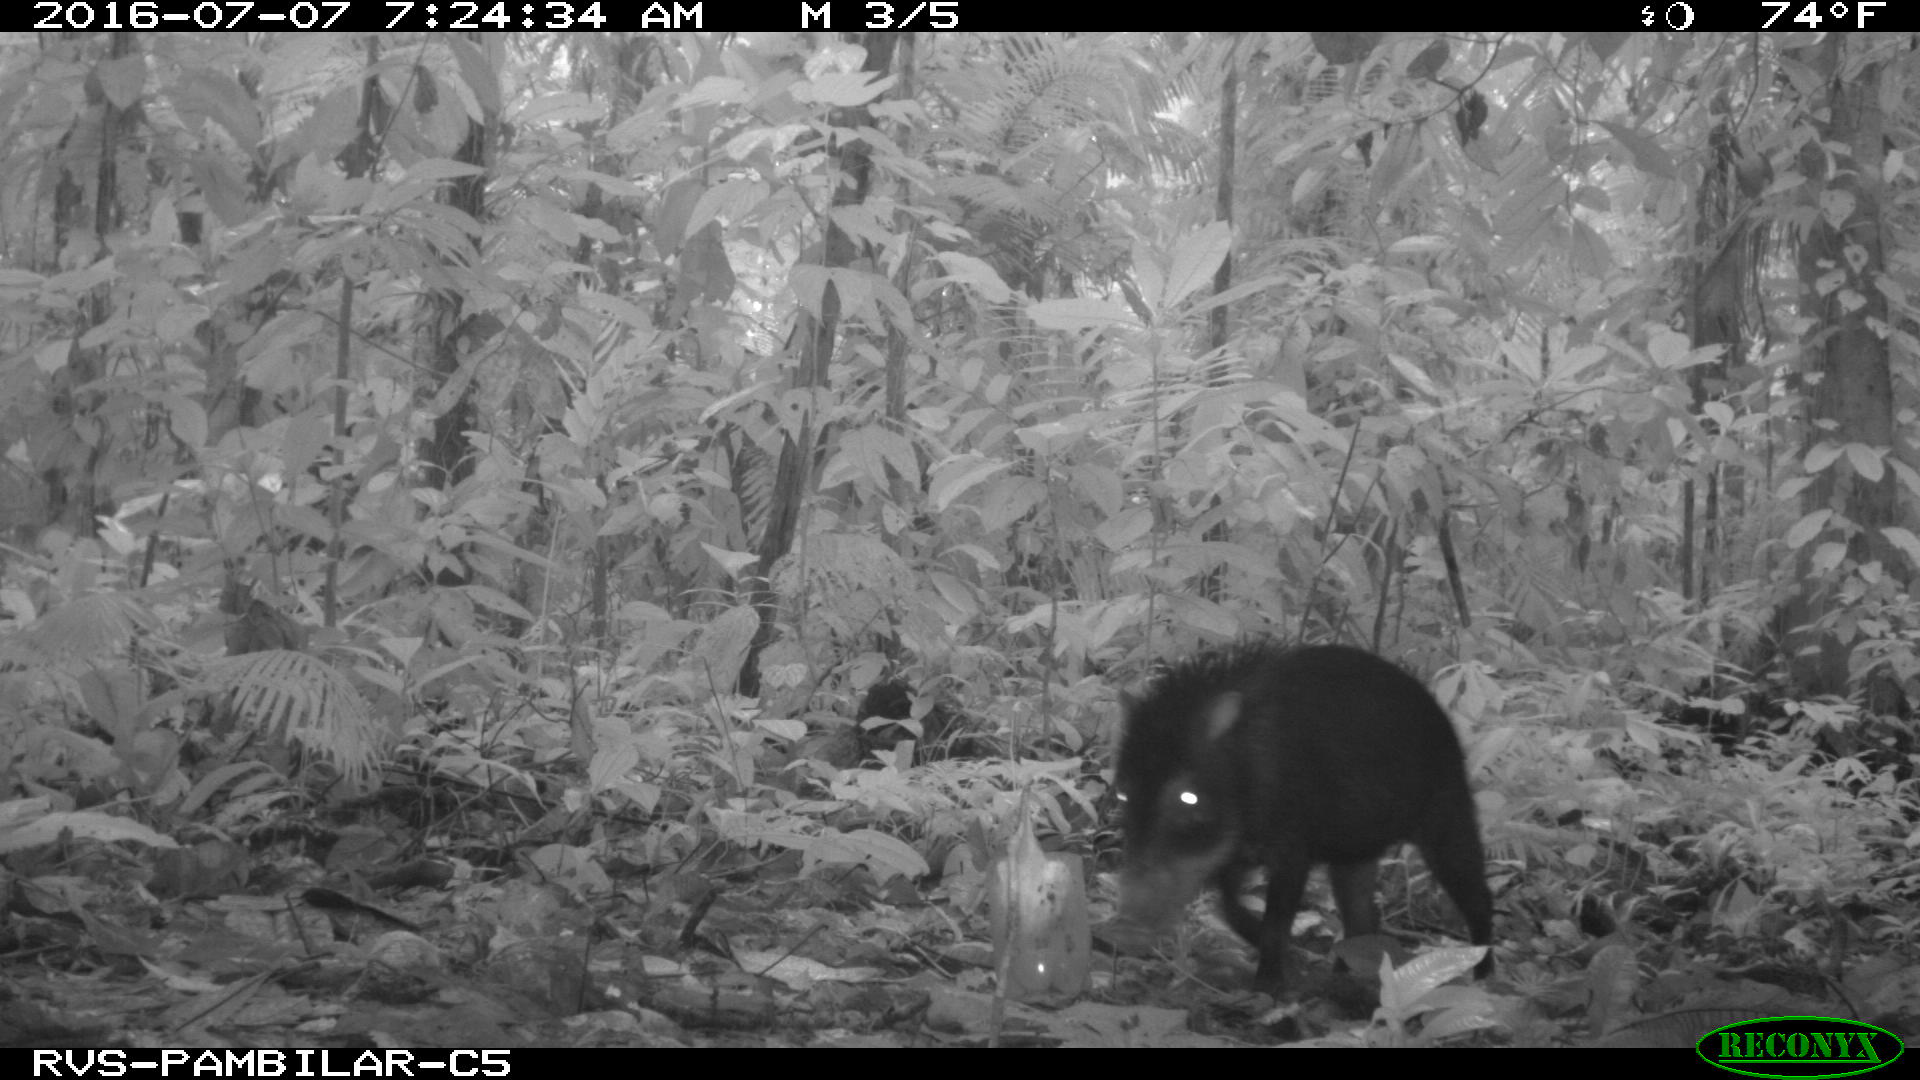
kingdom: Animalia
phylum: Chordata
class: Mammalia
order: Artiodactyla
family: Tayassuidae
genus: Tayassu
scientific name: Tayassu pecari
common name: White-lipped peccary
